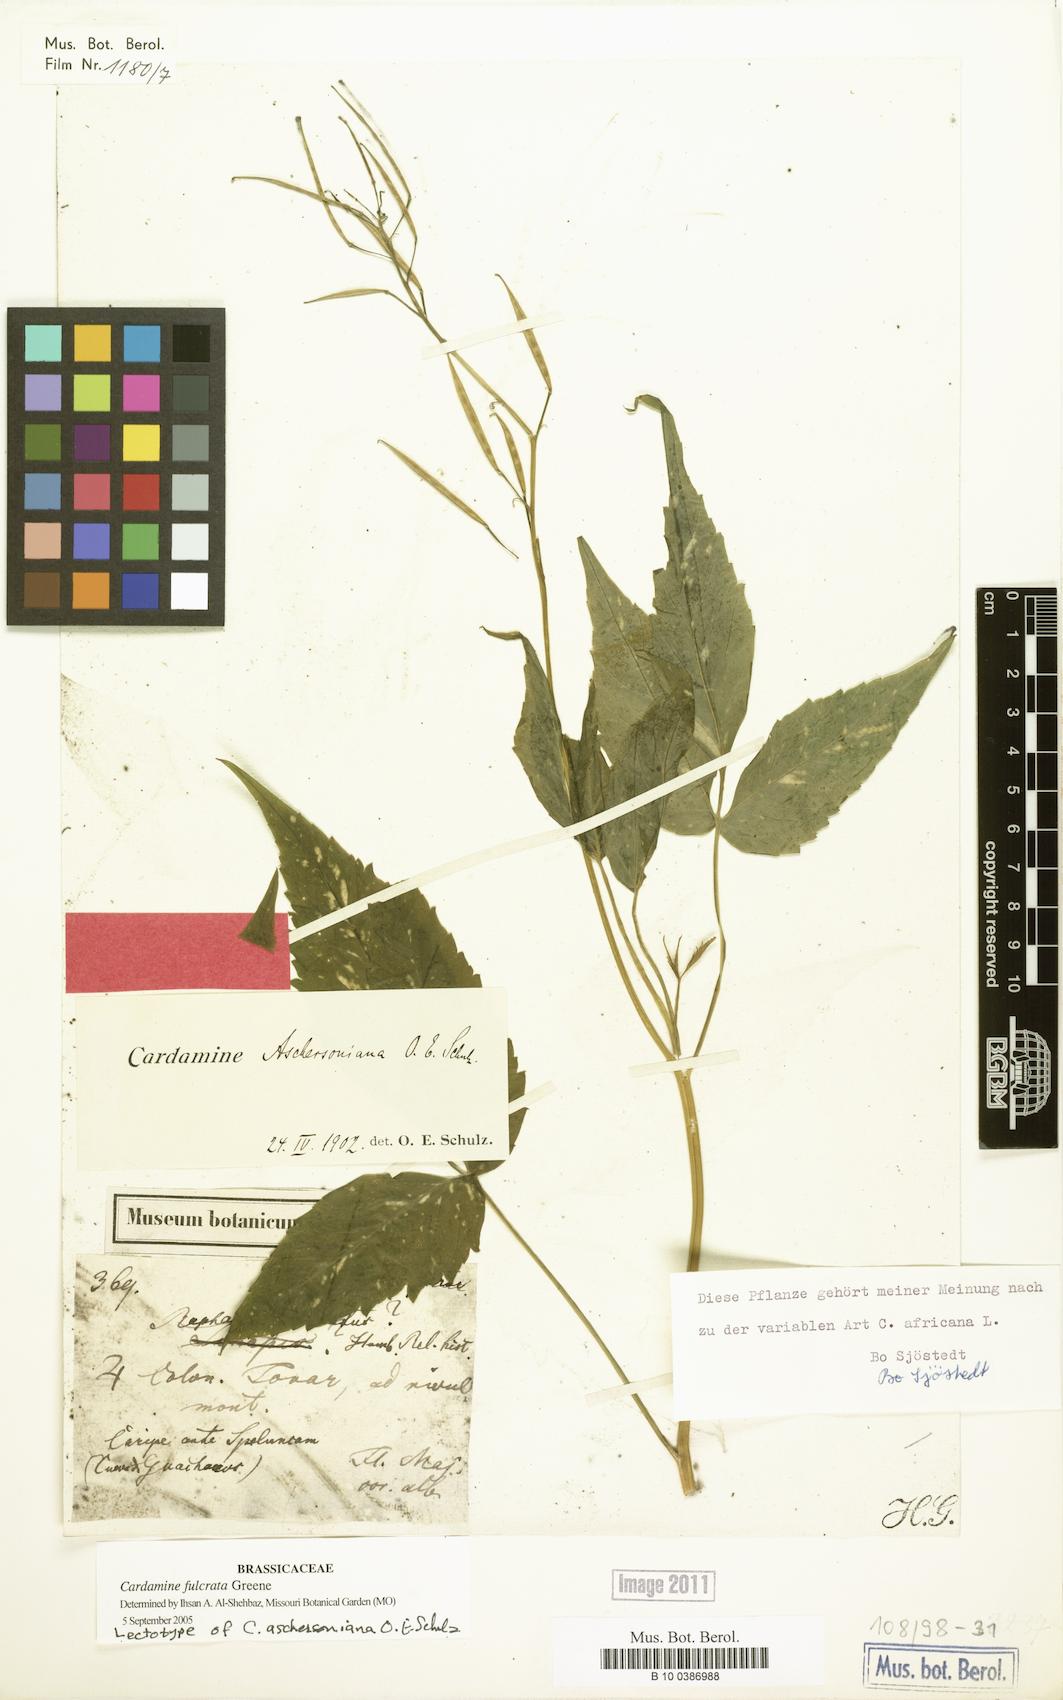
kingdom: Plantae
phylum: Tracheophyta
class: Magnoliopsida
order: Brassicales
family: Brassicaceae
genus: Cardamine
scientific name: Cardamine fulcrata
